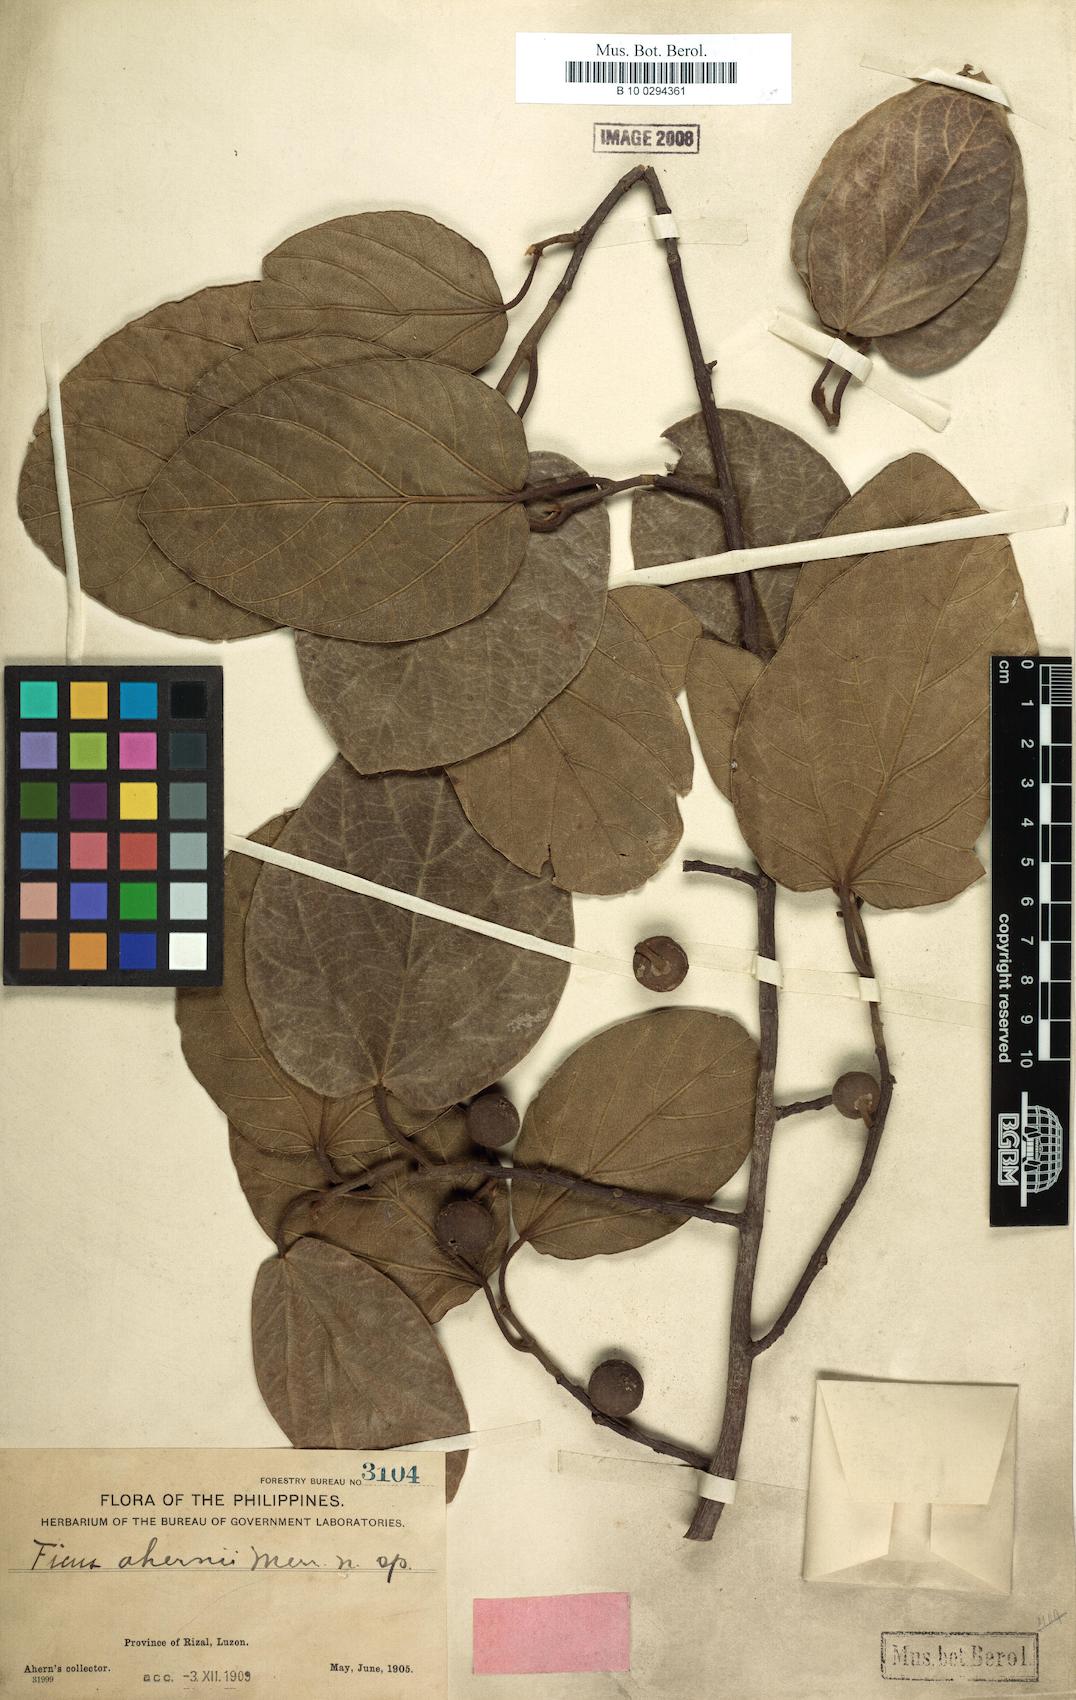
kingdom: Plantae
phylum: Tracheophyta
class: Magnoliopsida
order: Rosales
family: Moraceae
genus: Ficus
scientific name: Ficus trichocarpa
